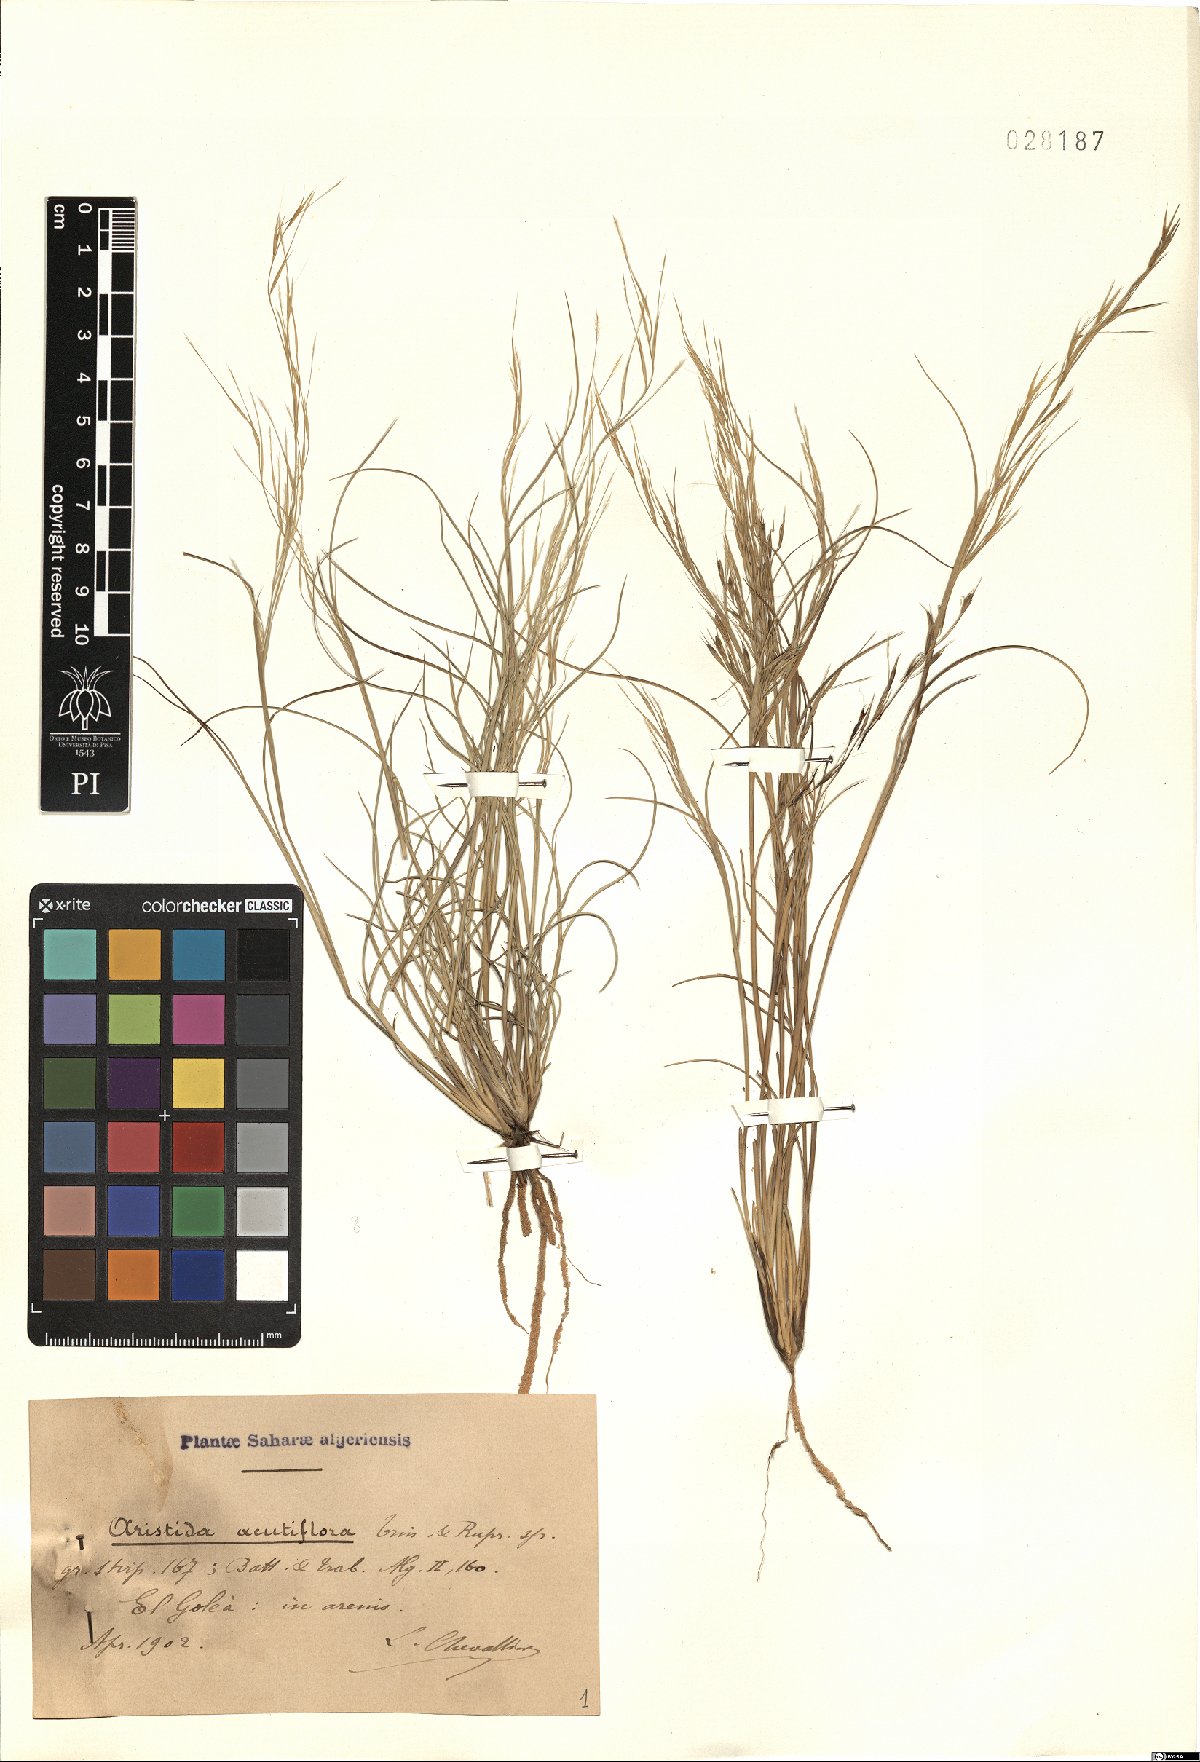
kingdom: Plantae
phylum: Tracheophyta
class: Liliopsida
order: Poales
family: Poaceae
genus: Stipagrostis
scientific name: Stipagrostis acutiflora
